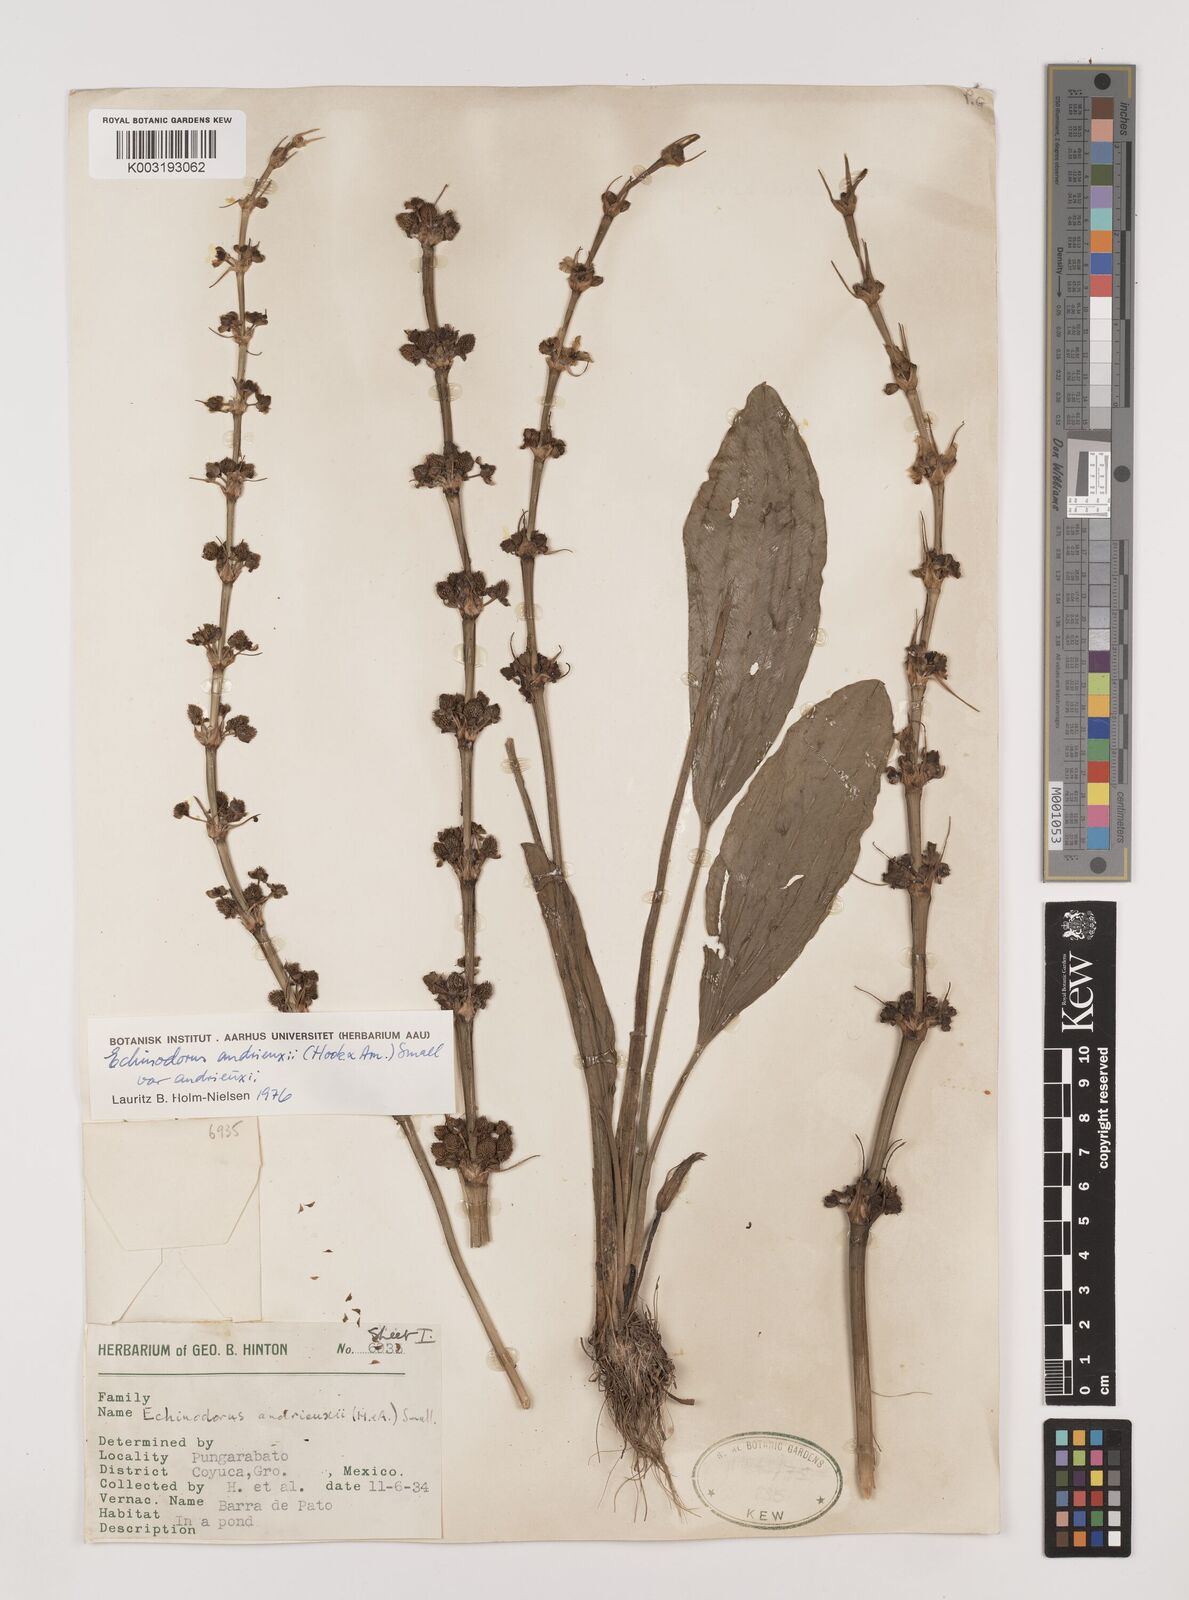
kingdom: Plantae
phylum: Tracheophyta
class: Liliopsida
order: Alismatales
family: Alismataceae
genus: Aquarius
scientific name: Aquarius subulatus
